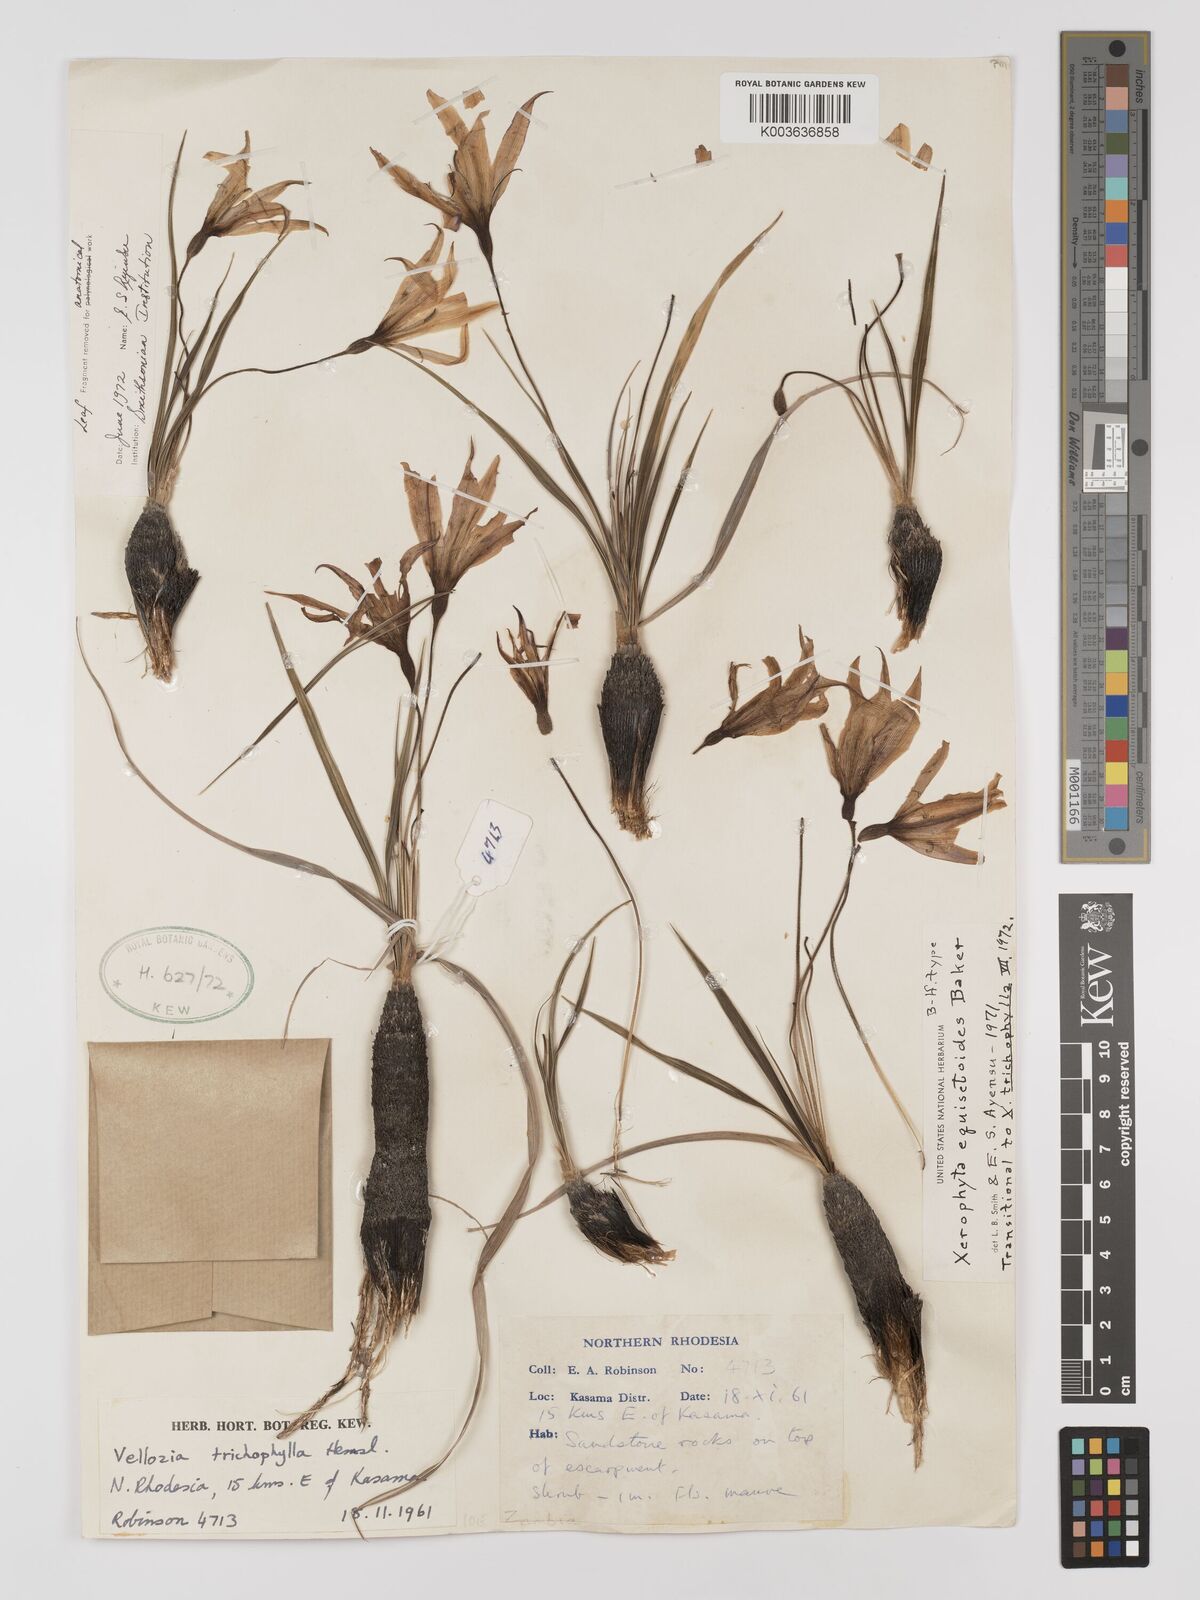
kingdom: Plantae
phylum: Tracheophyta
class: Liliopsida
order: Pandanales
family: Velloziaceae
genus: Xerophyta
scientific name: Xerophyta equisetoides
